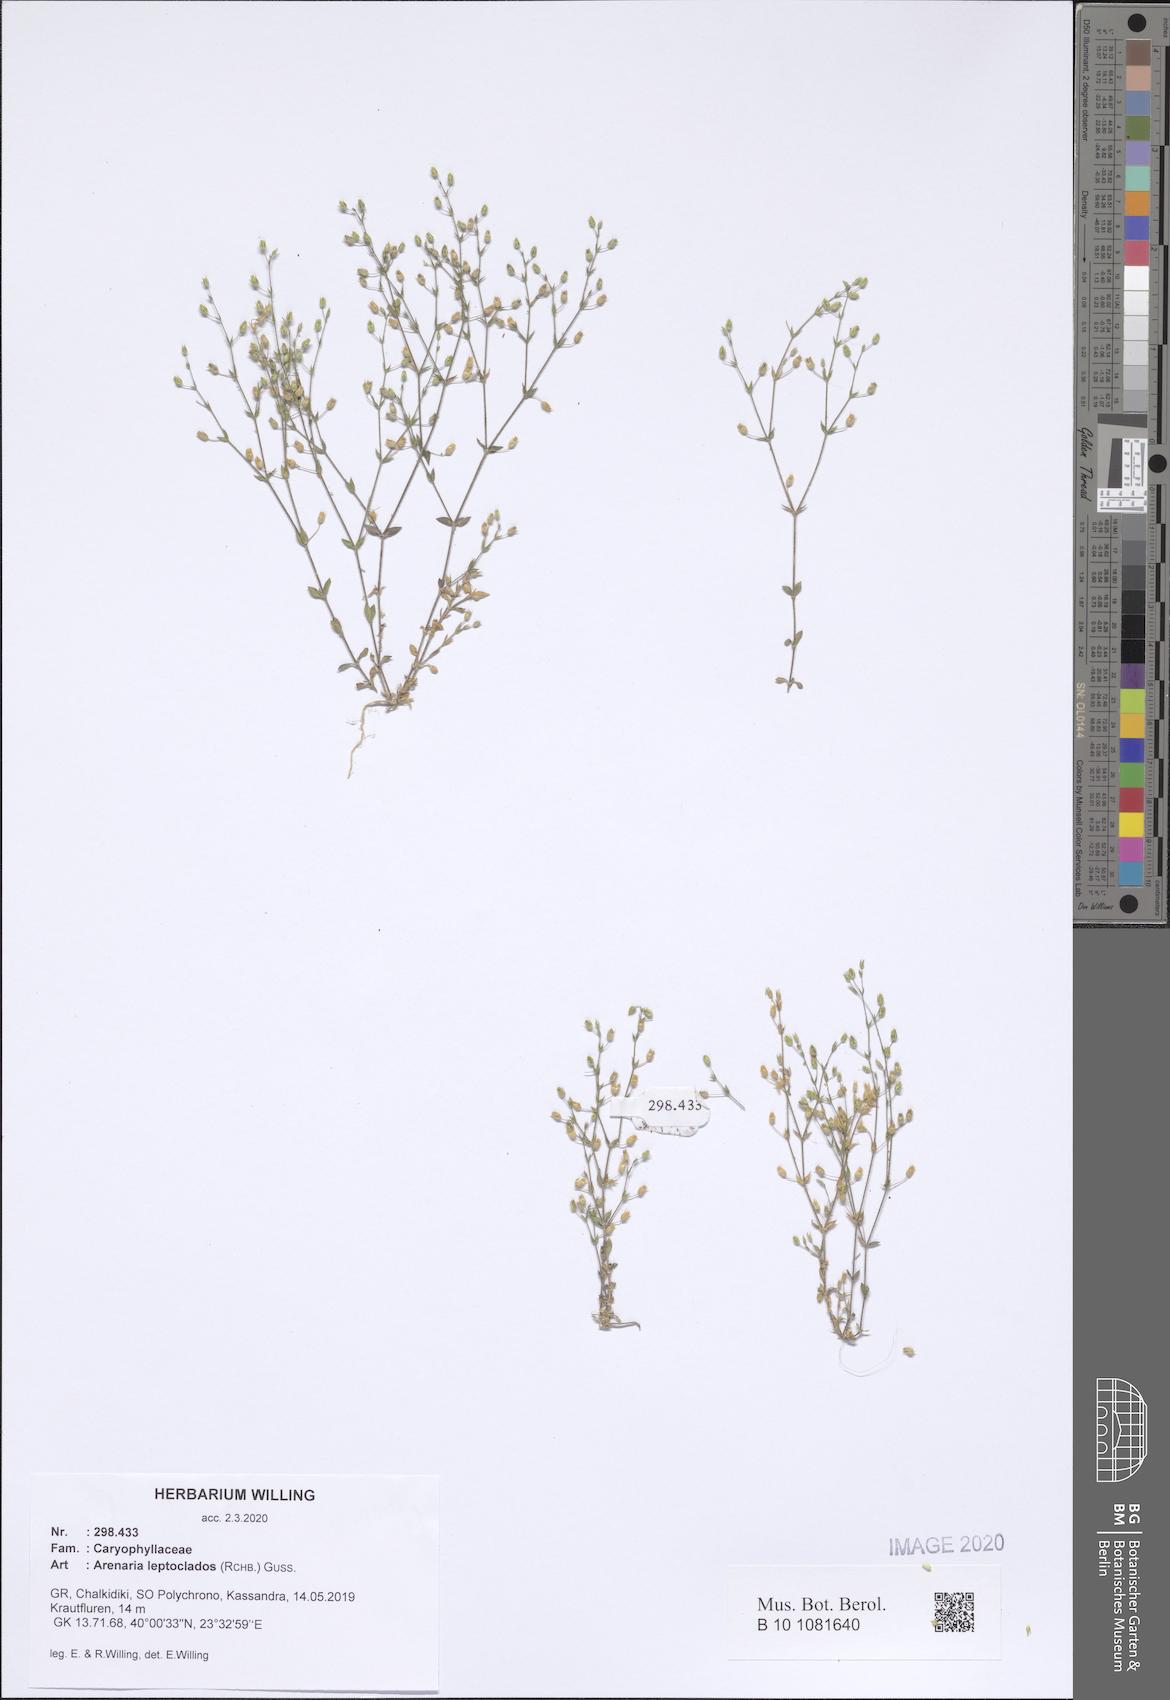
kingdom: Plantae
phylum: Tracheophyta
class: Magnoliopsida
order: Caryophyllales
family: Caryophyllaceae
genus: Arenaria
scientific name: Arenaria leptoclados
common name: Thyme-leaved sandwort
